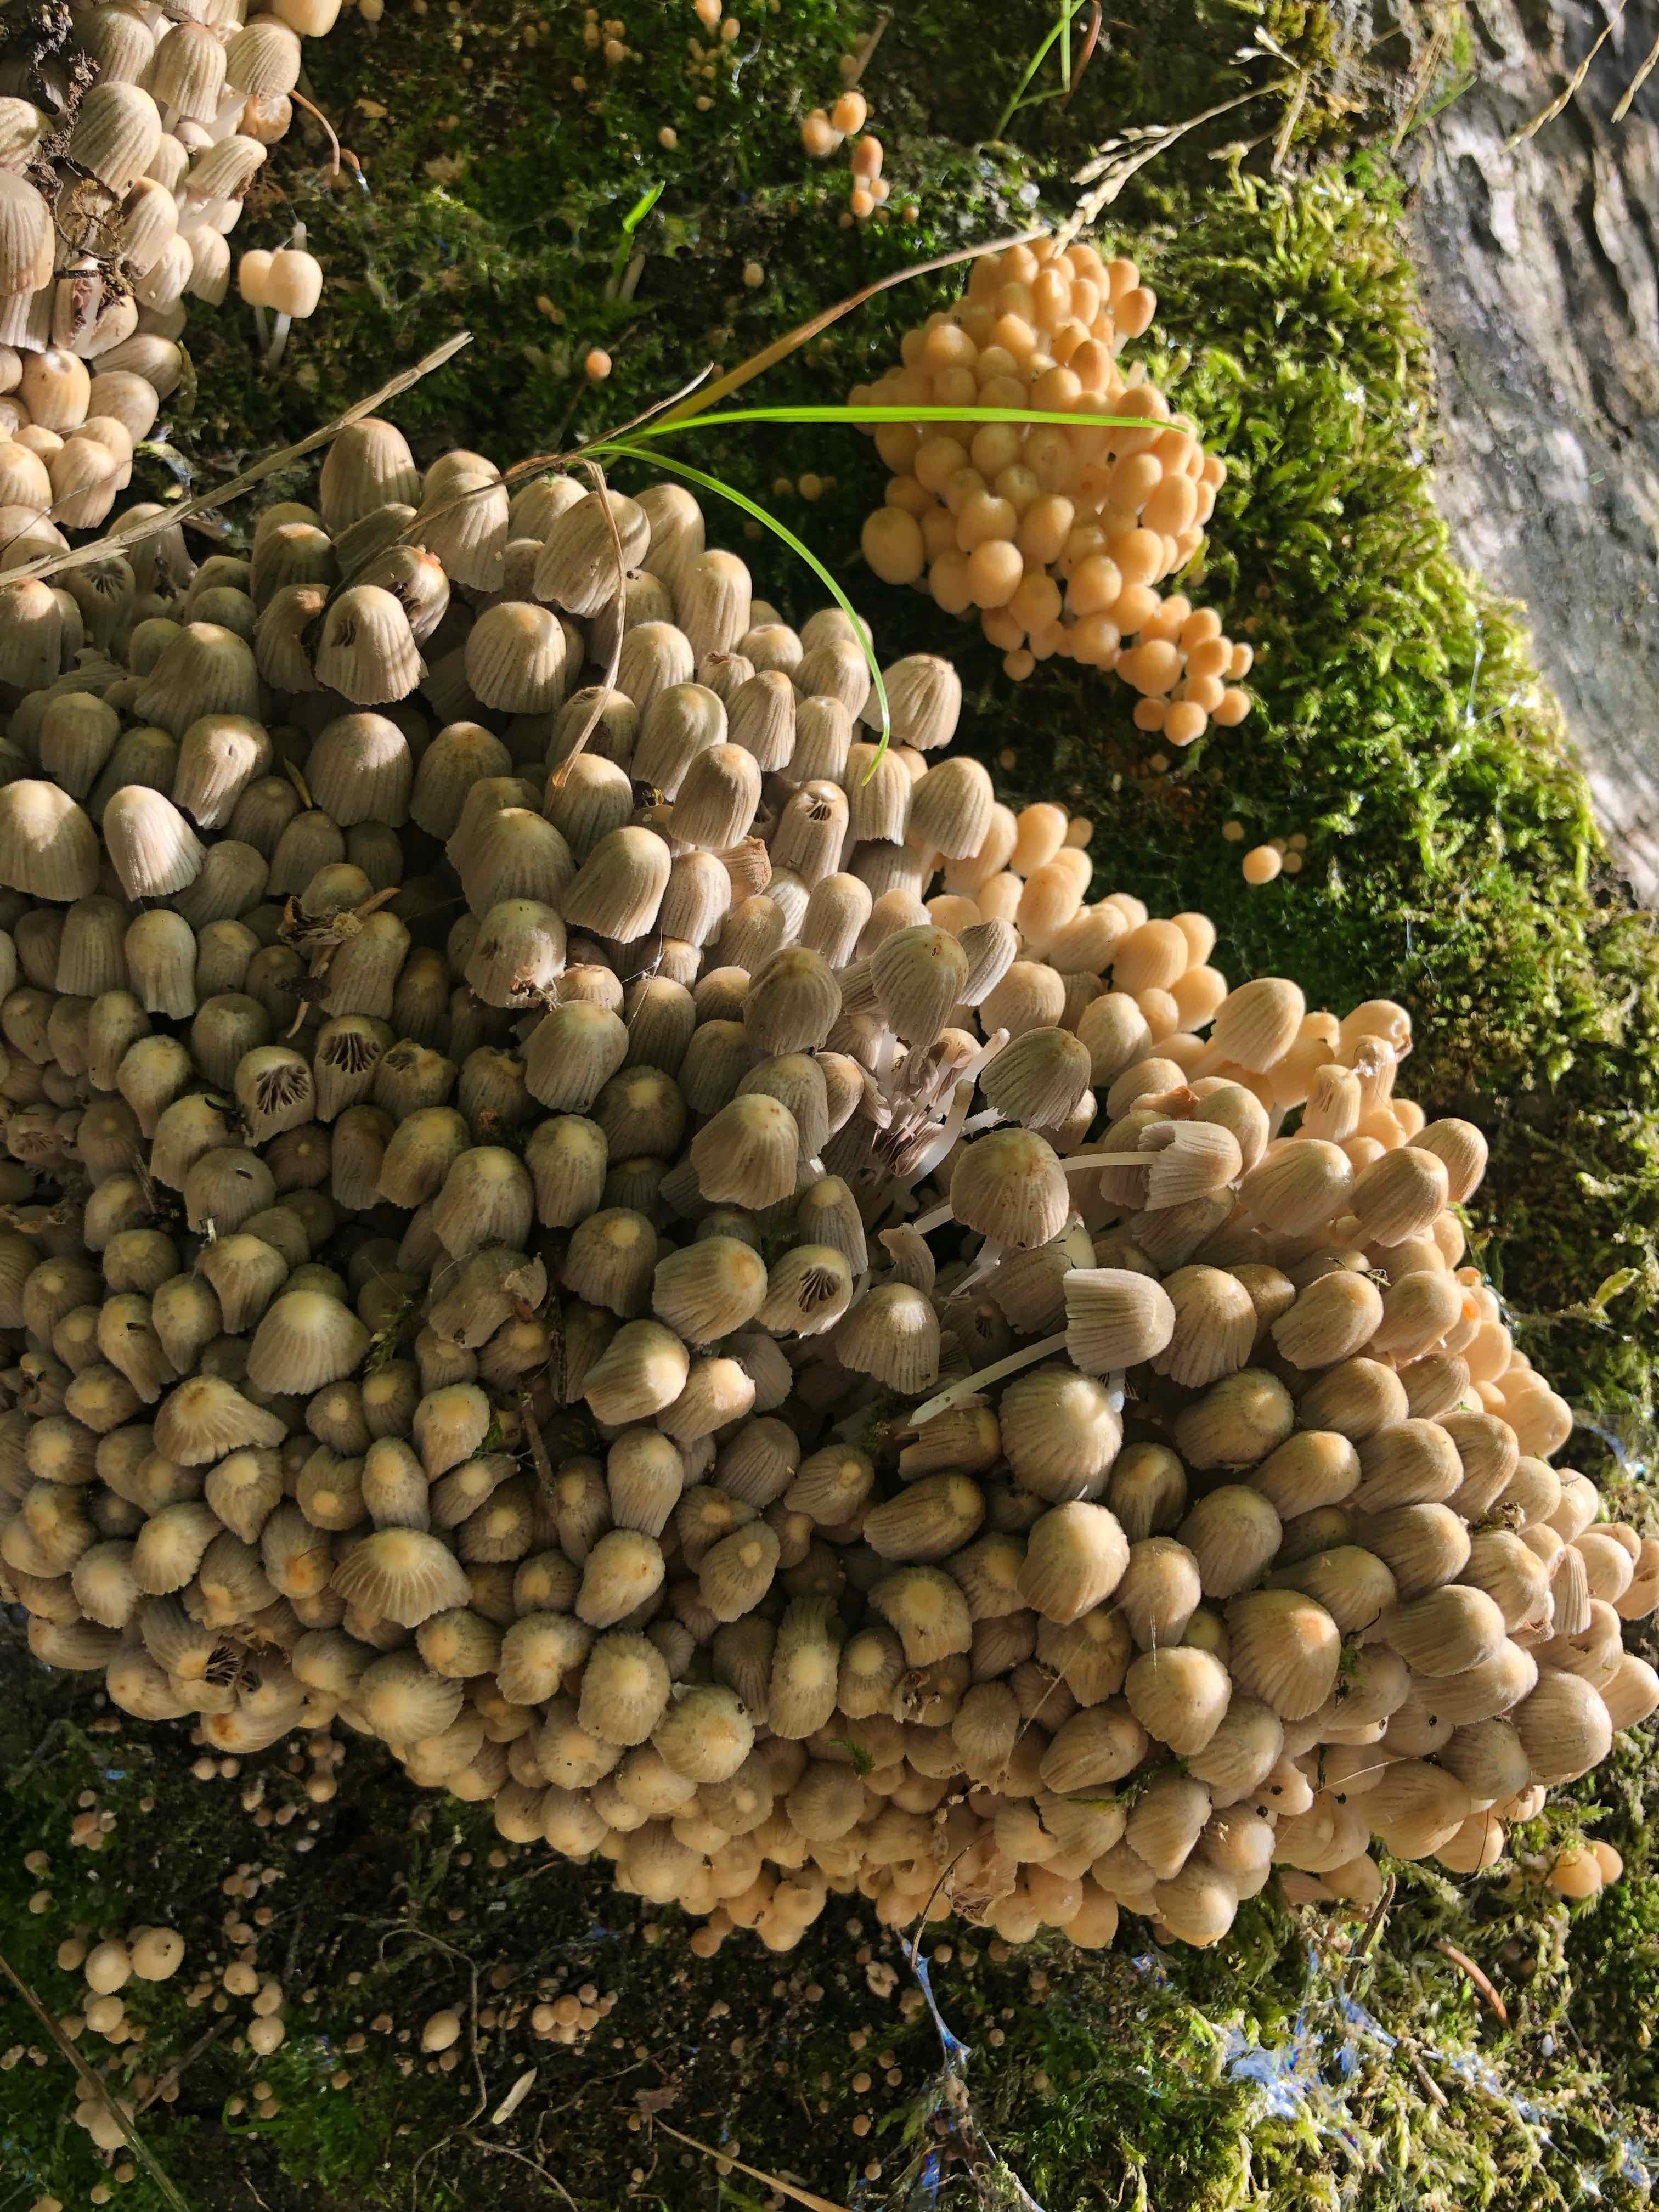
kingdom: Fungi
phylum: Basidiomycota
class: Agaricomycetes
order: Agaricales
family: Psathyrellaceae
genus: Coprinellus
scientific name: Coprinellus disseminatus
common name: bredsået blækhat
